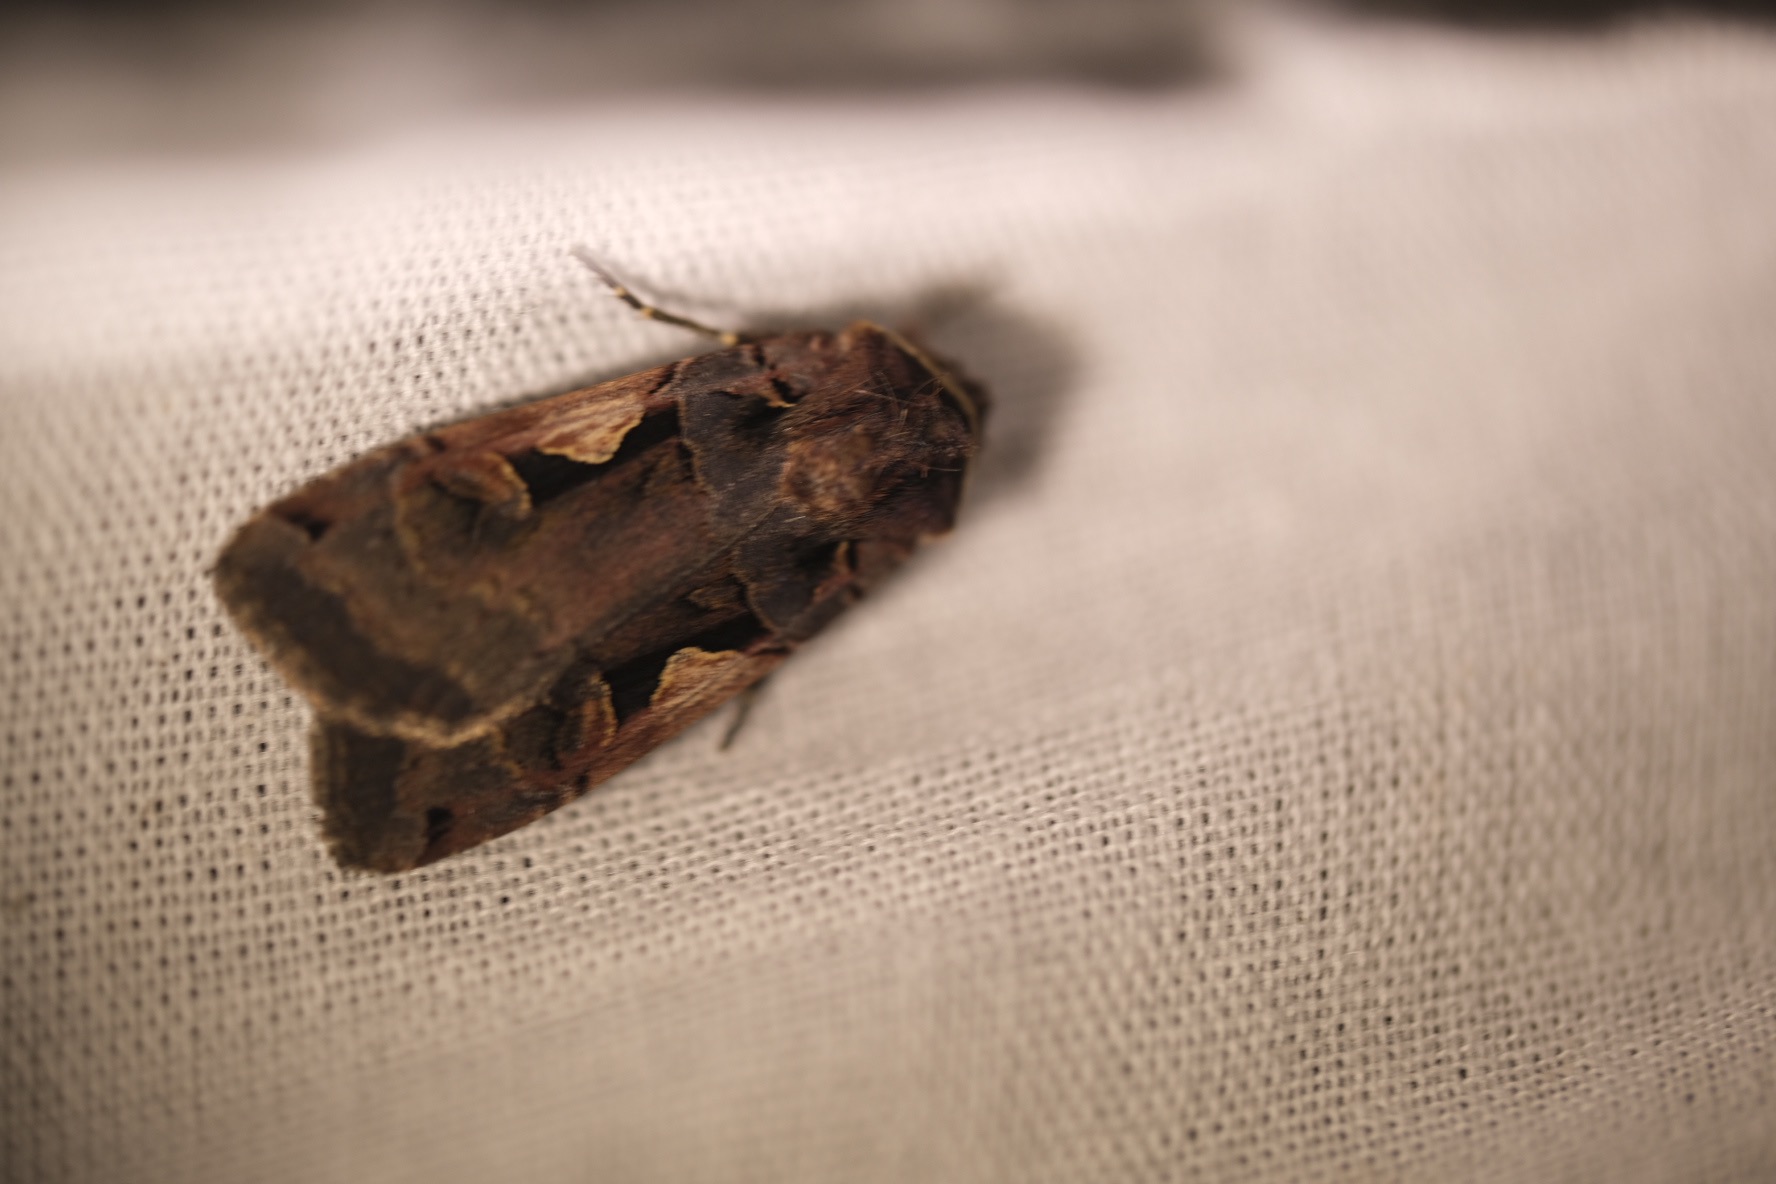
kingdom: Animalia
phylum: Arthropoda
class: Insecta
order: Lepidoptera
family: Noctuidae
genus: Xestia
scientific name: Xestia c-nigrum
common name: Det sorte c
